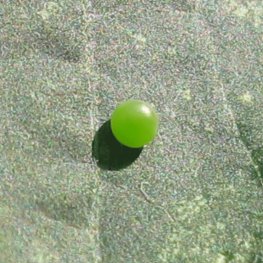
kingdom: Animalia
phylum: Arthropoda
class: Insecta
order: Lepidoptera
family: Papilionidae
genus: Pterourus
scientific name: Pterourus glaucus
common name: Eastern Tiger Swallowtail
